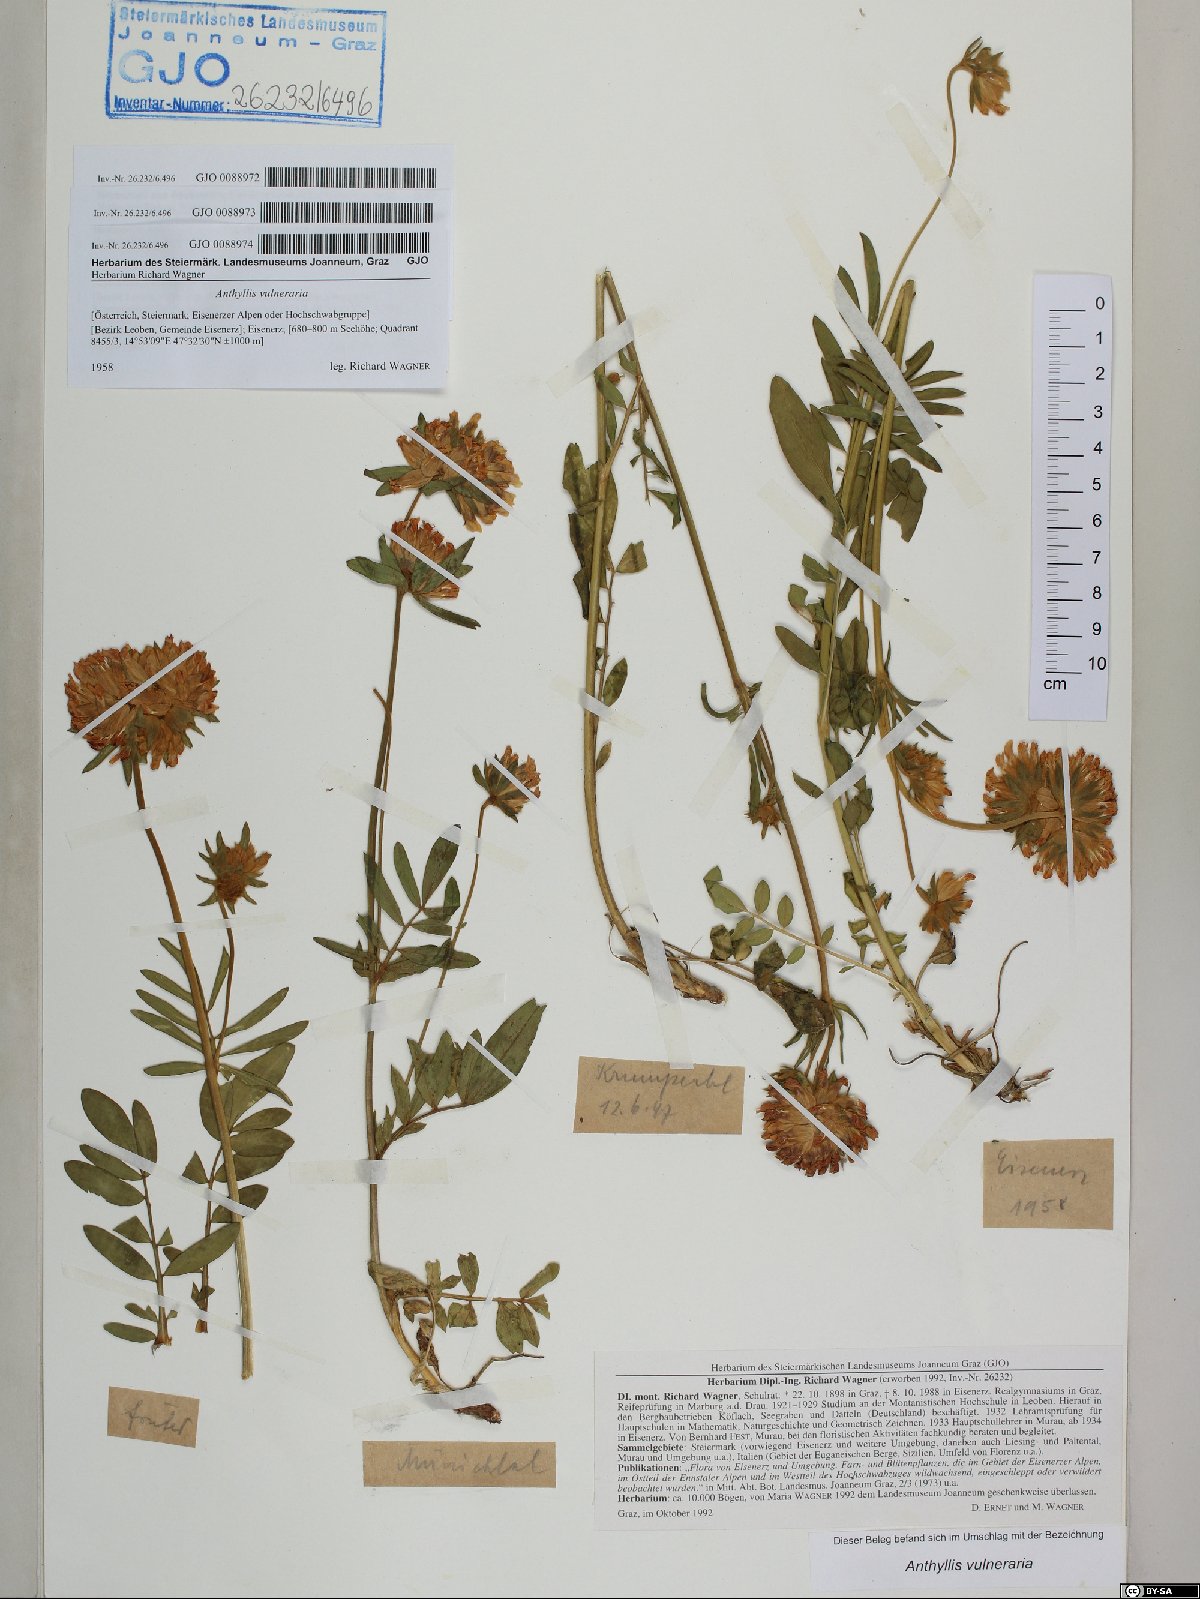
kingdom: Plantae
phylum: Tracheophyta
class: Magnoliopsida
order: Fabales
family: Fabaceae
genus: Anthyllis
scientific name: Anthyllis vulneraria
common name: Kidney vetch
